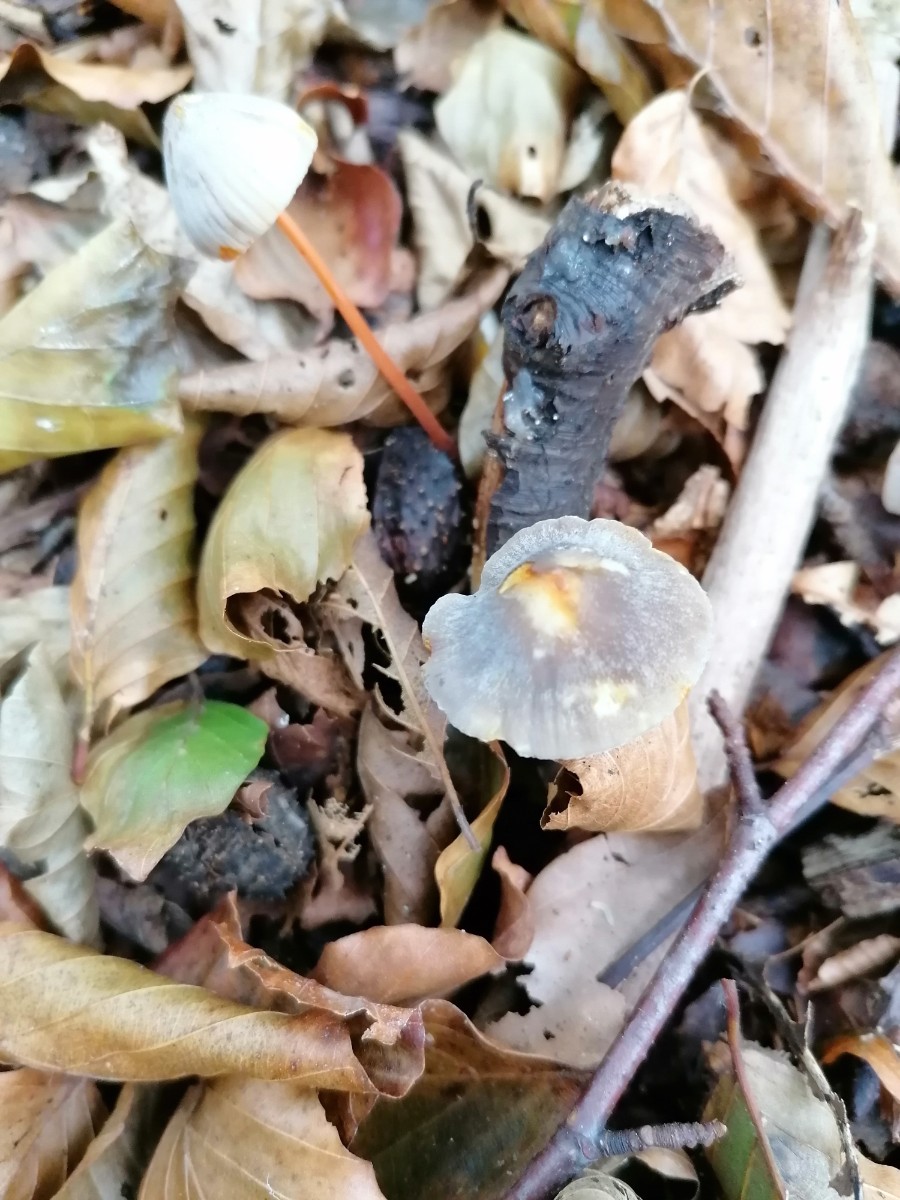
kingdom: Fungi
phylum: Basidiomycota
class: Agaricomycetes
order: Agaricales
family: Mycenaceae
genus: Mycena
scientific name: Mycena crocata
